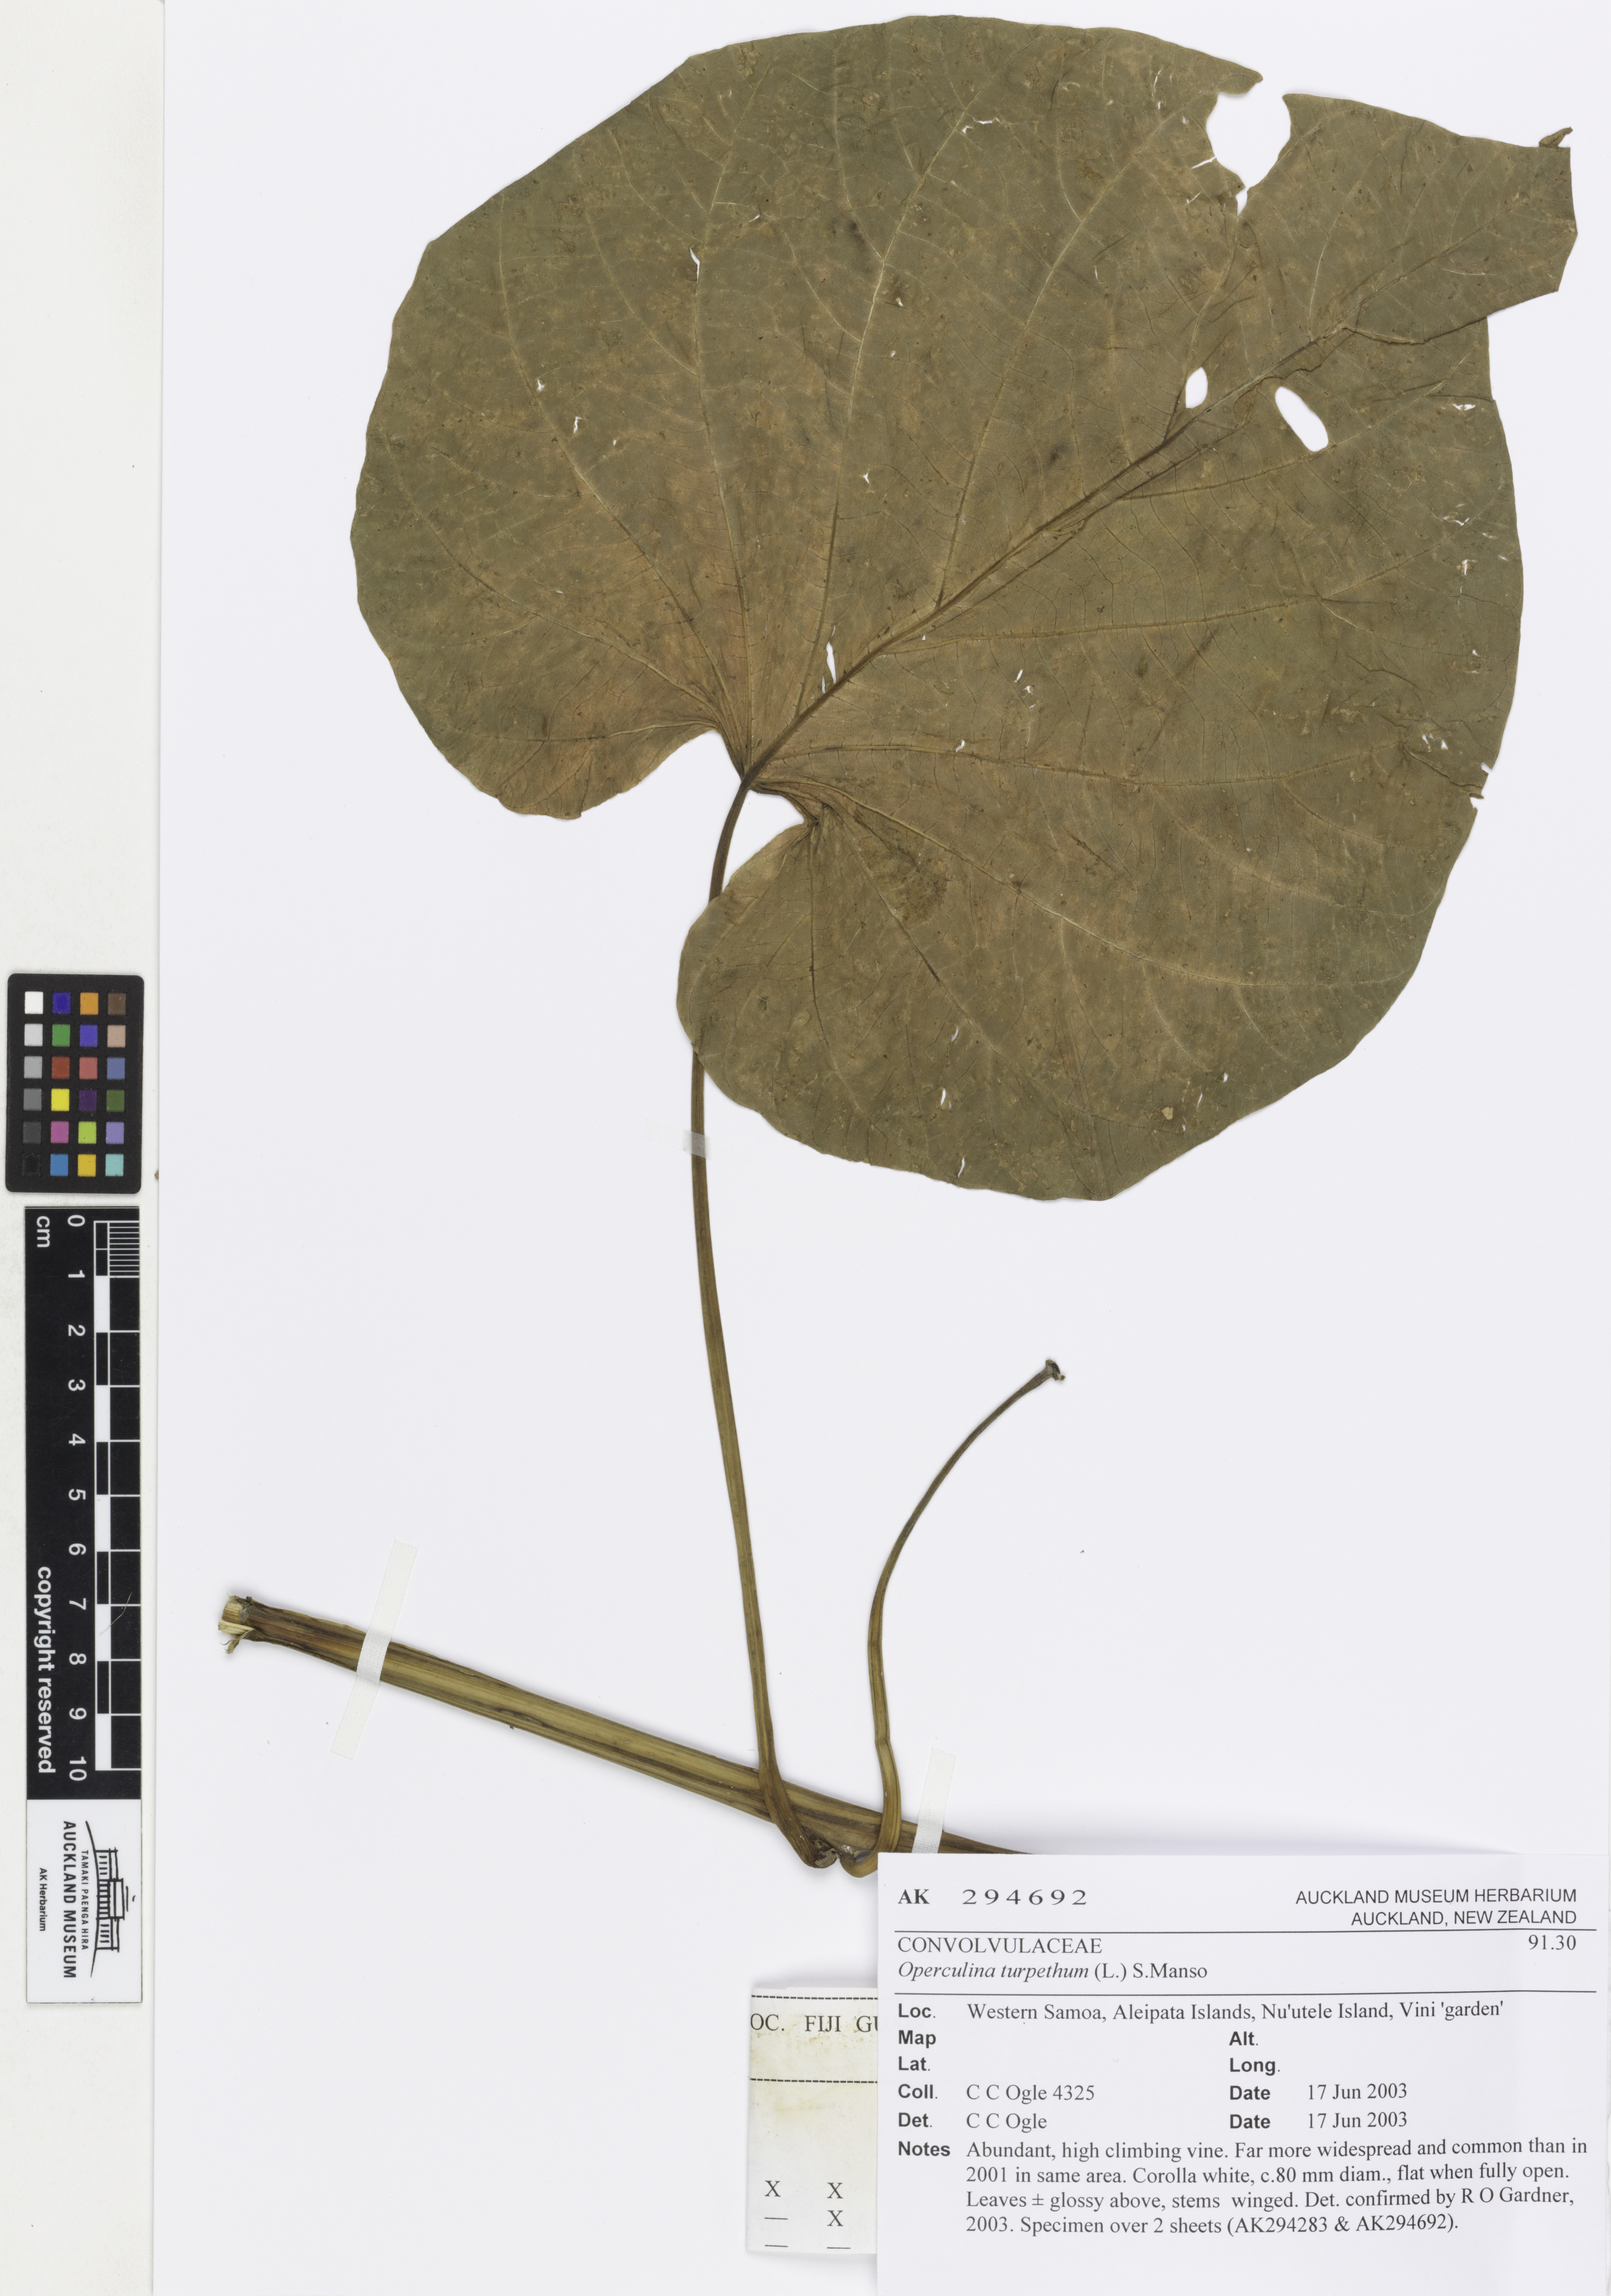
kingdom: Plantae
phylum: Tracheophyta
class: Magnoliopsida
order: Solanales
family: Convolvulaceae
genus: Operculina
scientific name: Operculina turpethum
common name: Transparent wood-rose
